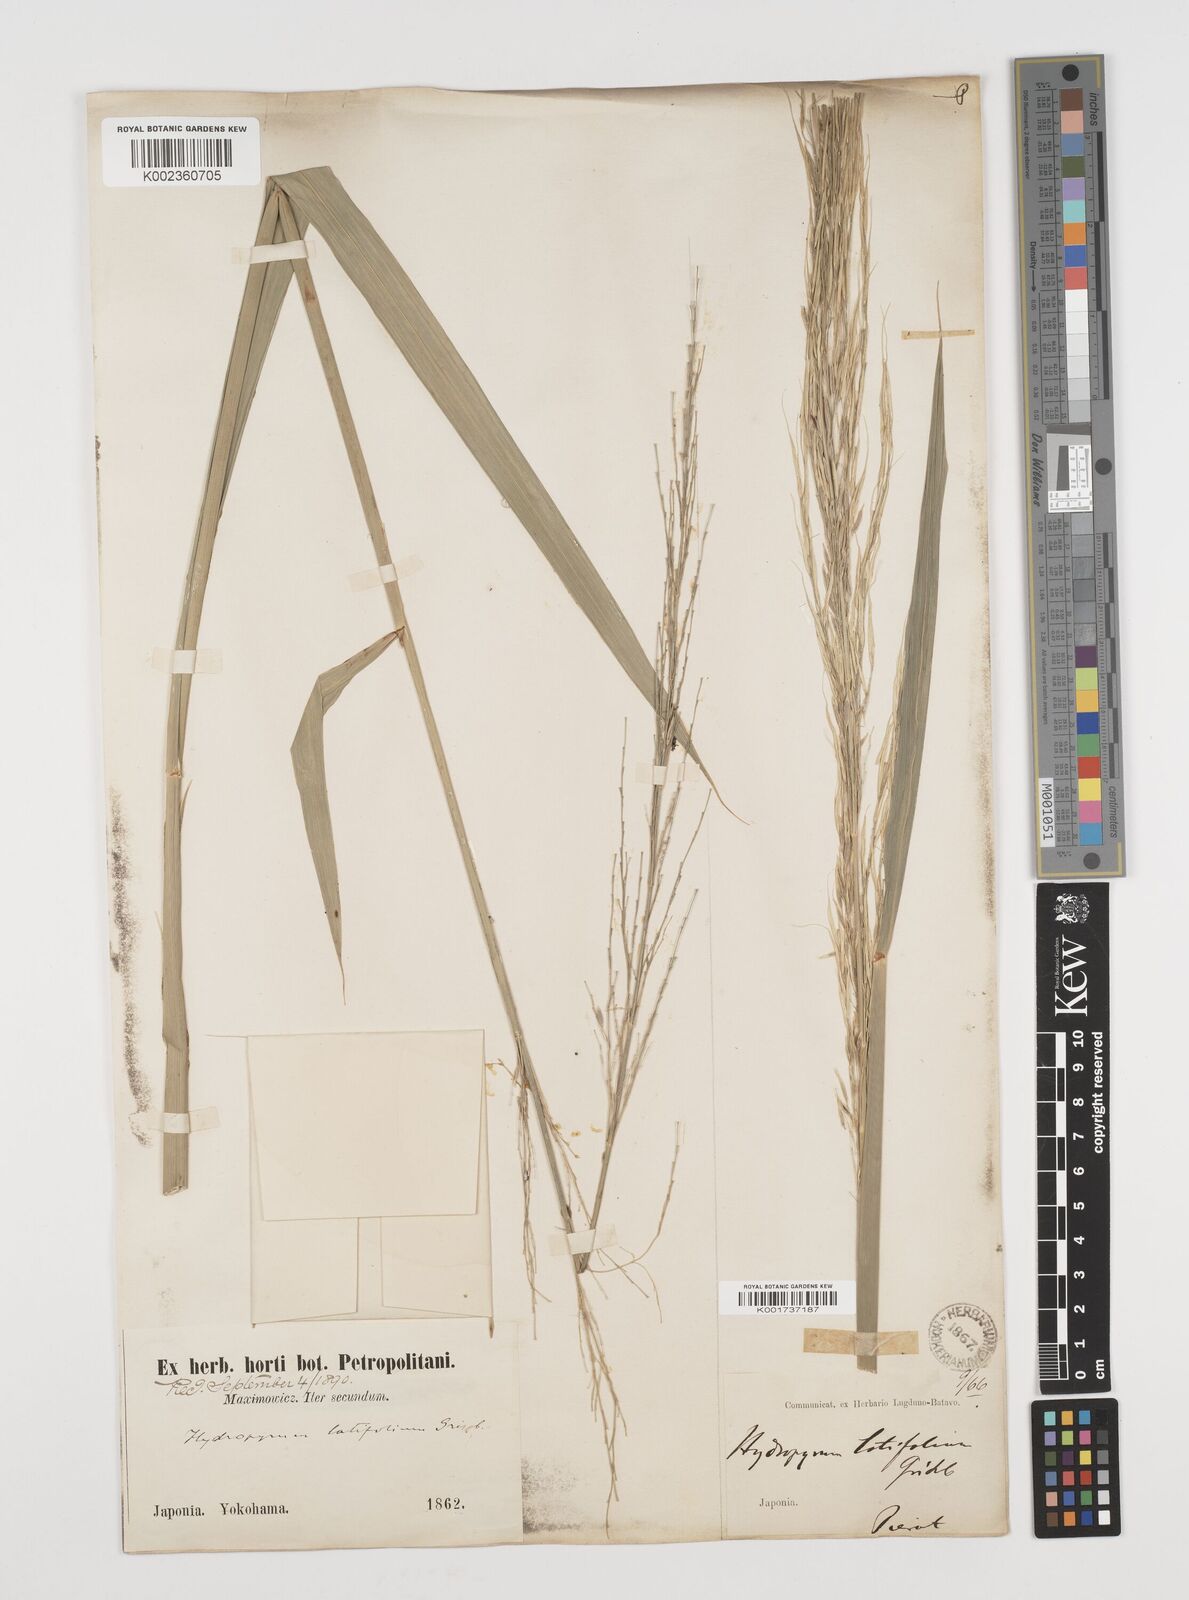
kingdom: Plantae
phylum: Tracheophyta
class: Liliopsida
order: Poales
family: Poaceae
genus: Zizania
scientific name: Zizania latifolia
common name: Manchurian wildrice
